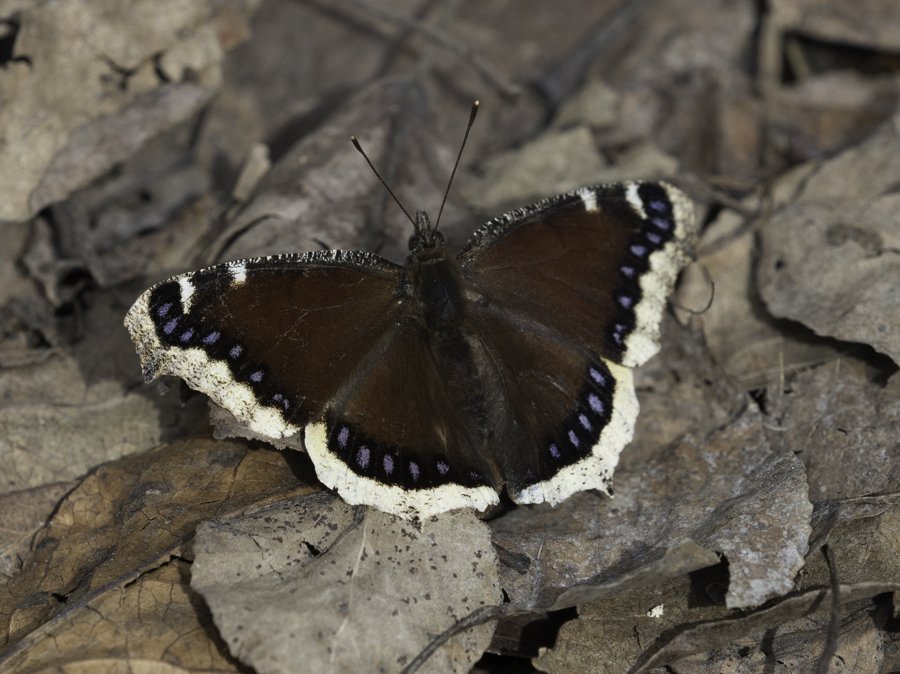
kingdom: Animalia
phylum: Arthropoda
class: Insecta
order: Lepidoptera
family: Nymphalidae
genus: Nymphalis
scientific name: Nymphalis antiopa
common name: Mourning Cloak
